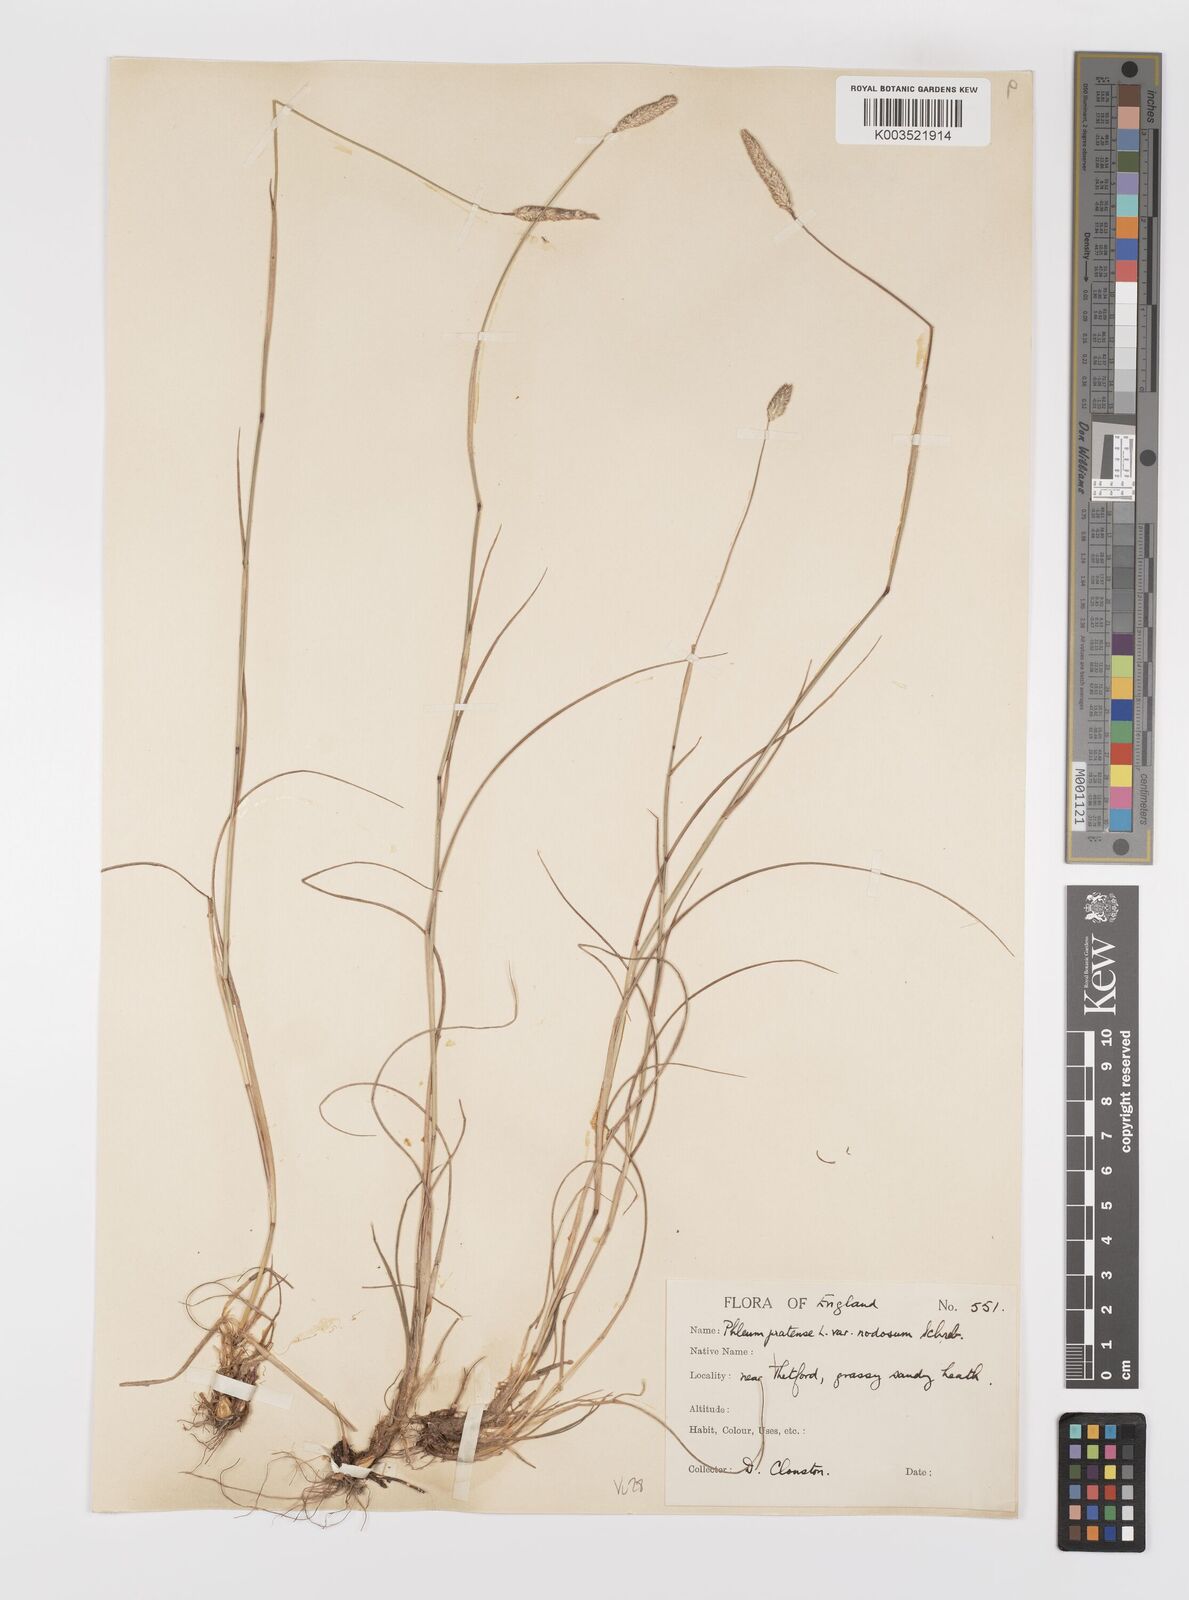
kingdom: Plantae
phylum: Tracheophyta
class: Liliopsida
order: Poales
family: Poaceae
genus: Phleum
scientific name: Phleum bertolonii
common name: Smaller cat's-tail
